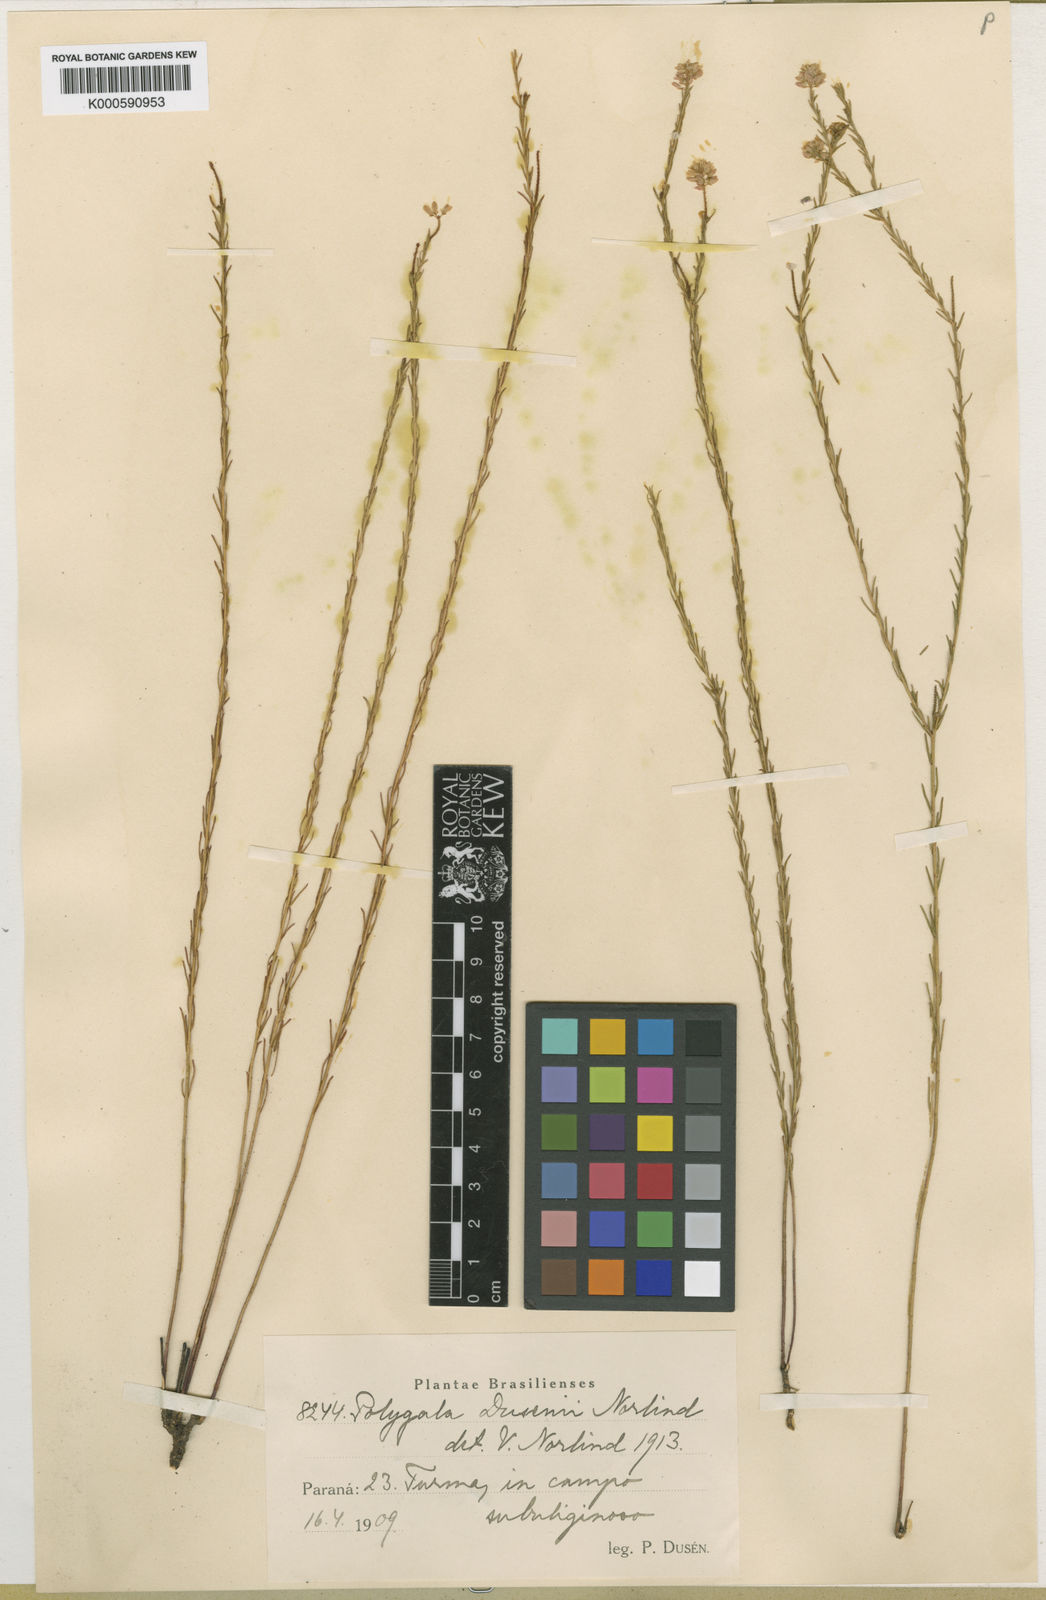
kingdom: Plantae
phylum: Tracheophyta
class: Magnoliopsida
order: Fabales
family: Polygalaceae
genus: Polygala
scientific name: Polygala lycopodioides
